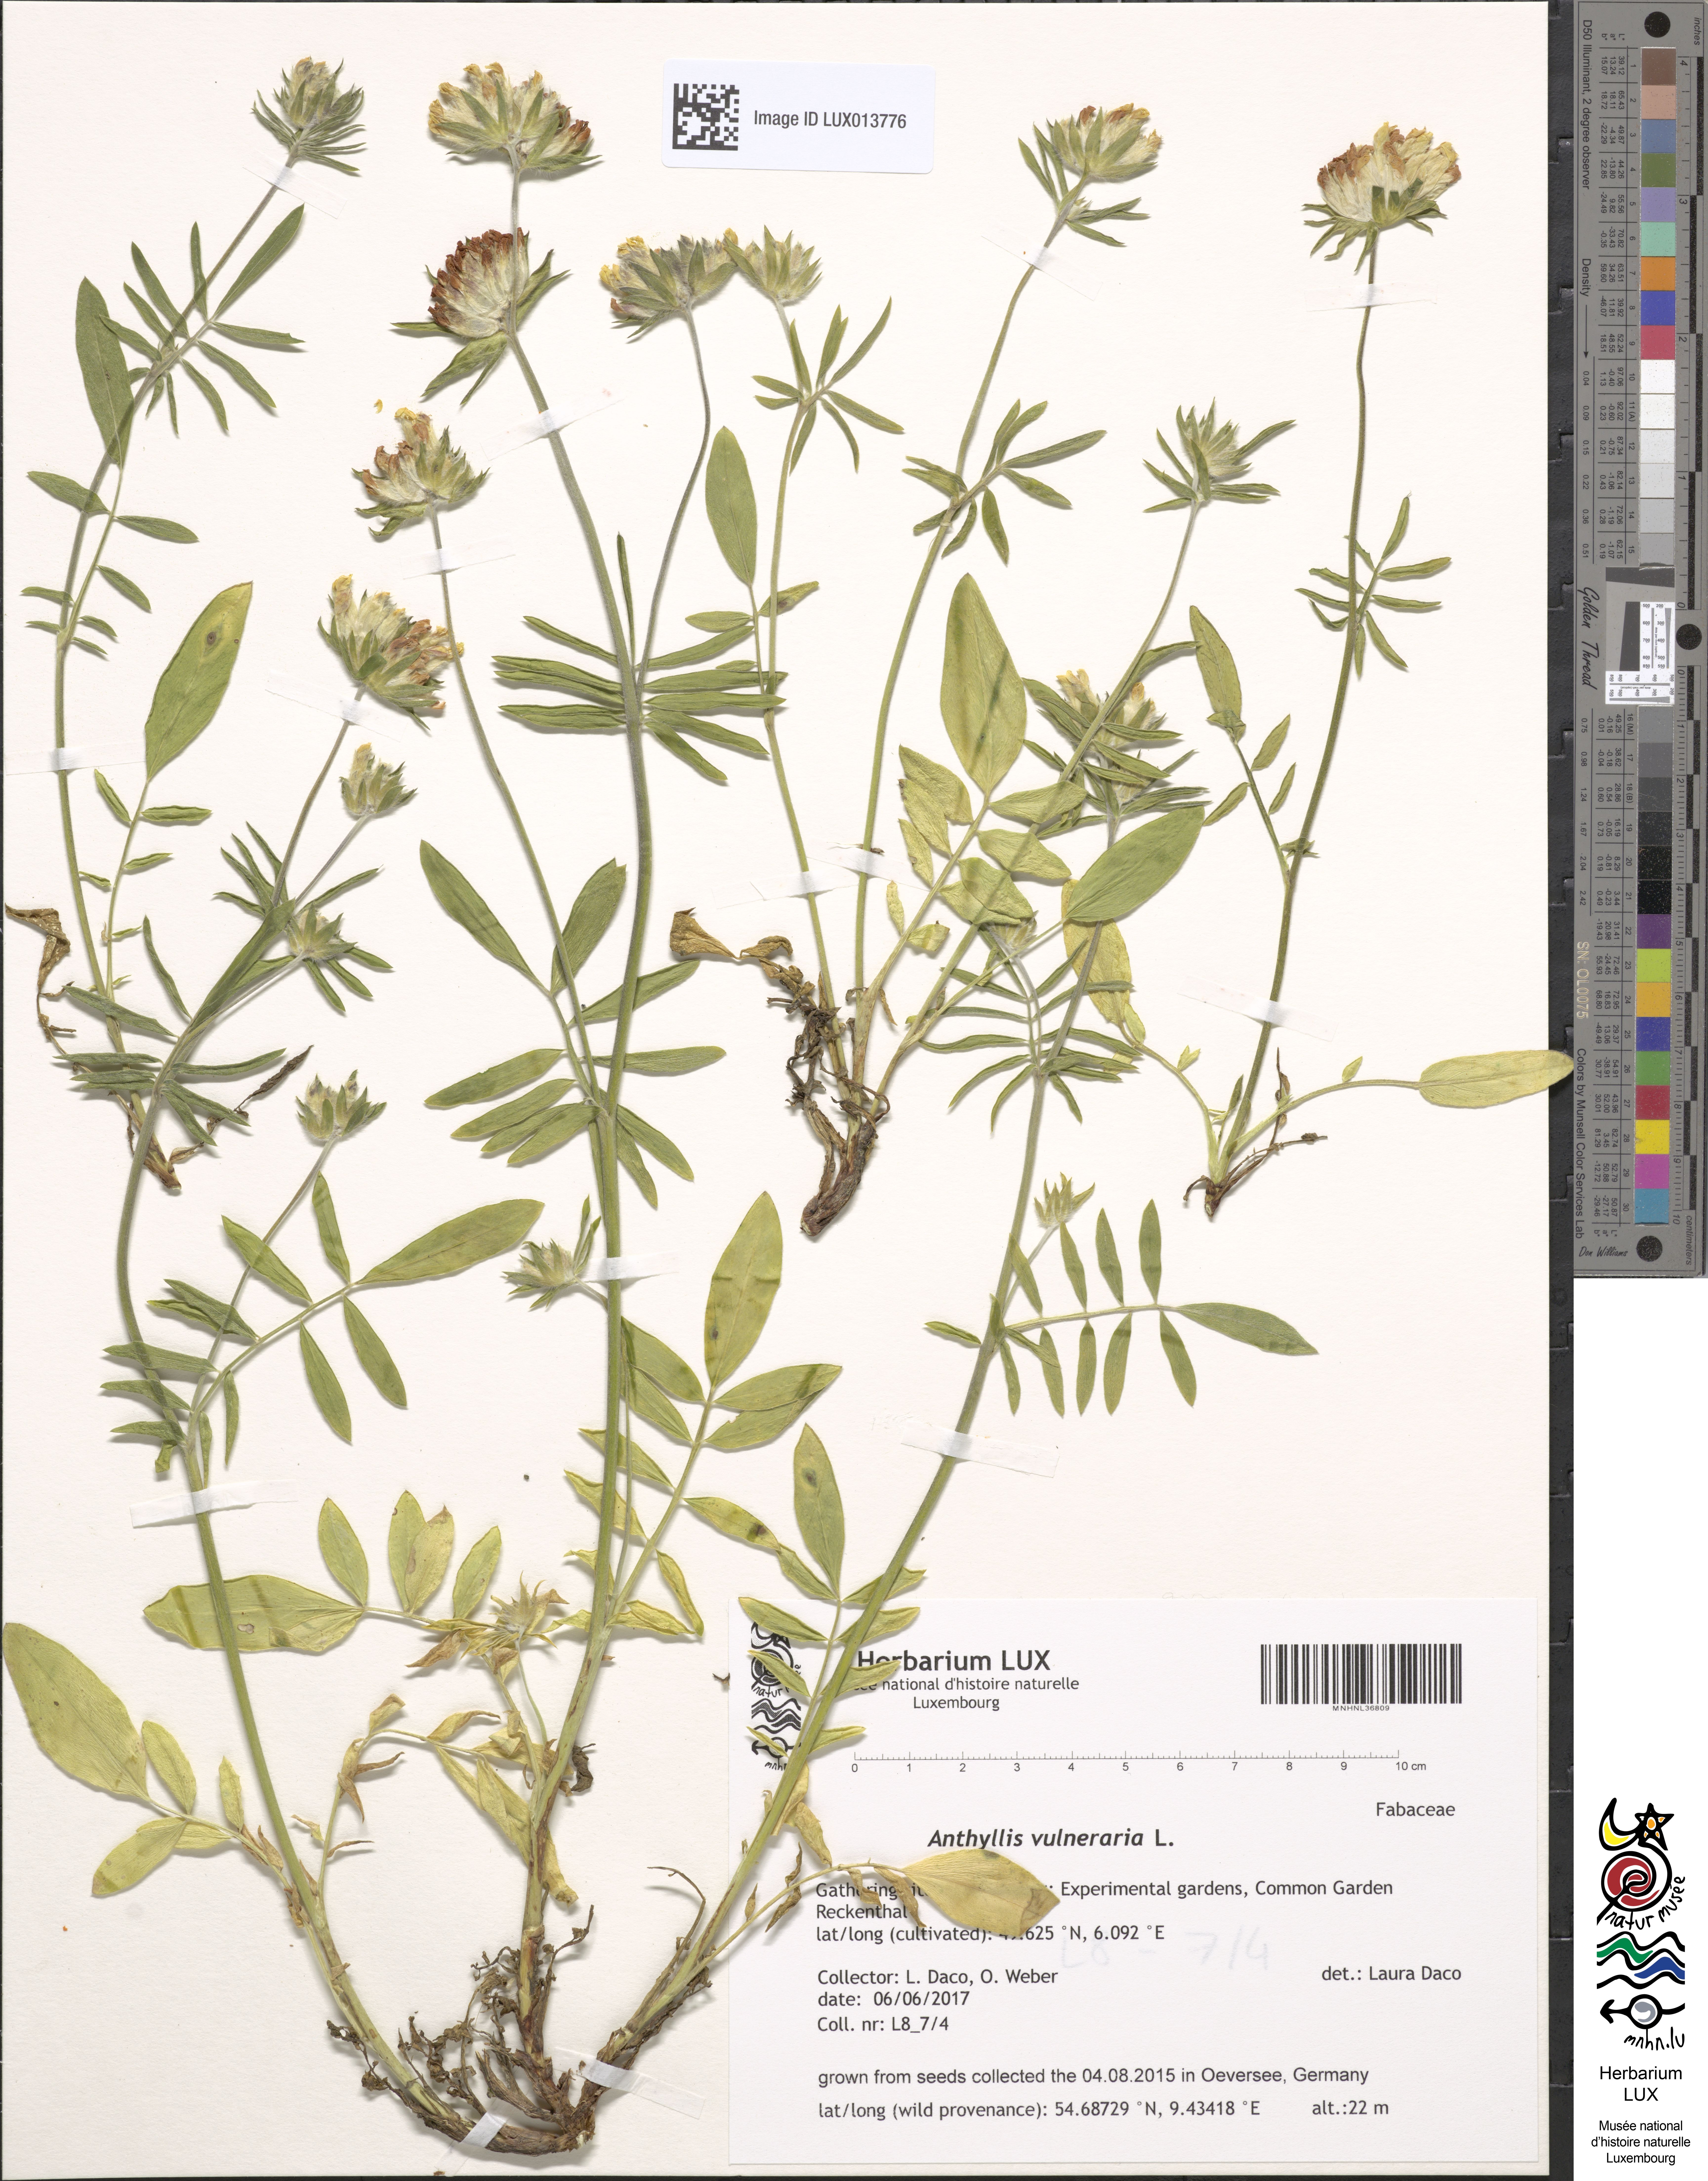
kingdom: Plantae
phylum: Tracheophyta
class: Magnoliopsida
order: Fabales
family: Fabaceae
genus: Anthyllis
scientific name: Anthyllis vulneraria
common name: Kidney vetch
